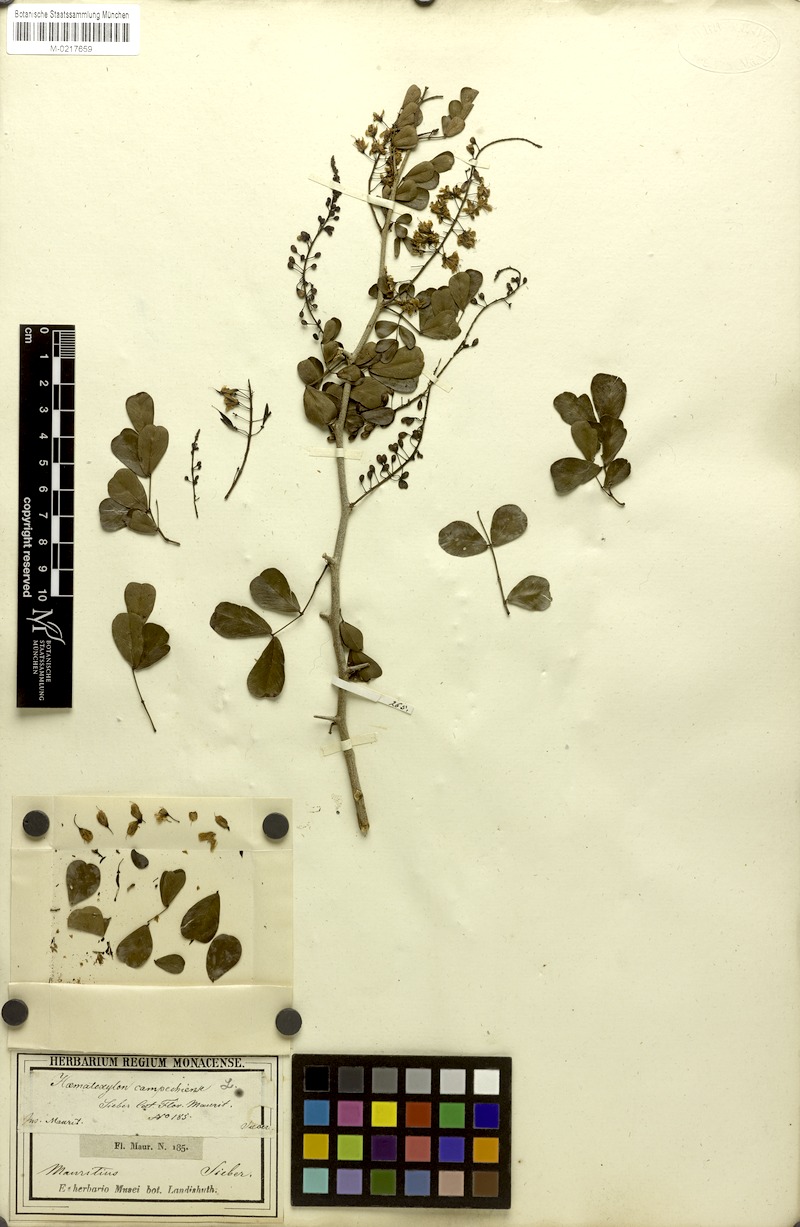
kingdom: Plantae
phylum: Tracheophyta
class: Magnoliopsida
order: Fabales
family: Fabaceae
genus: Haematoxylum
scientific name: Haematoxylum campechianum
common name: Logwood
